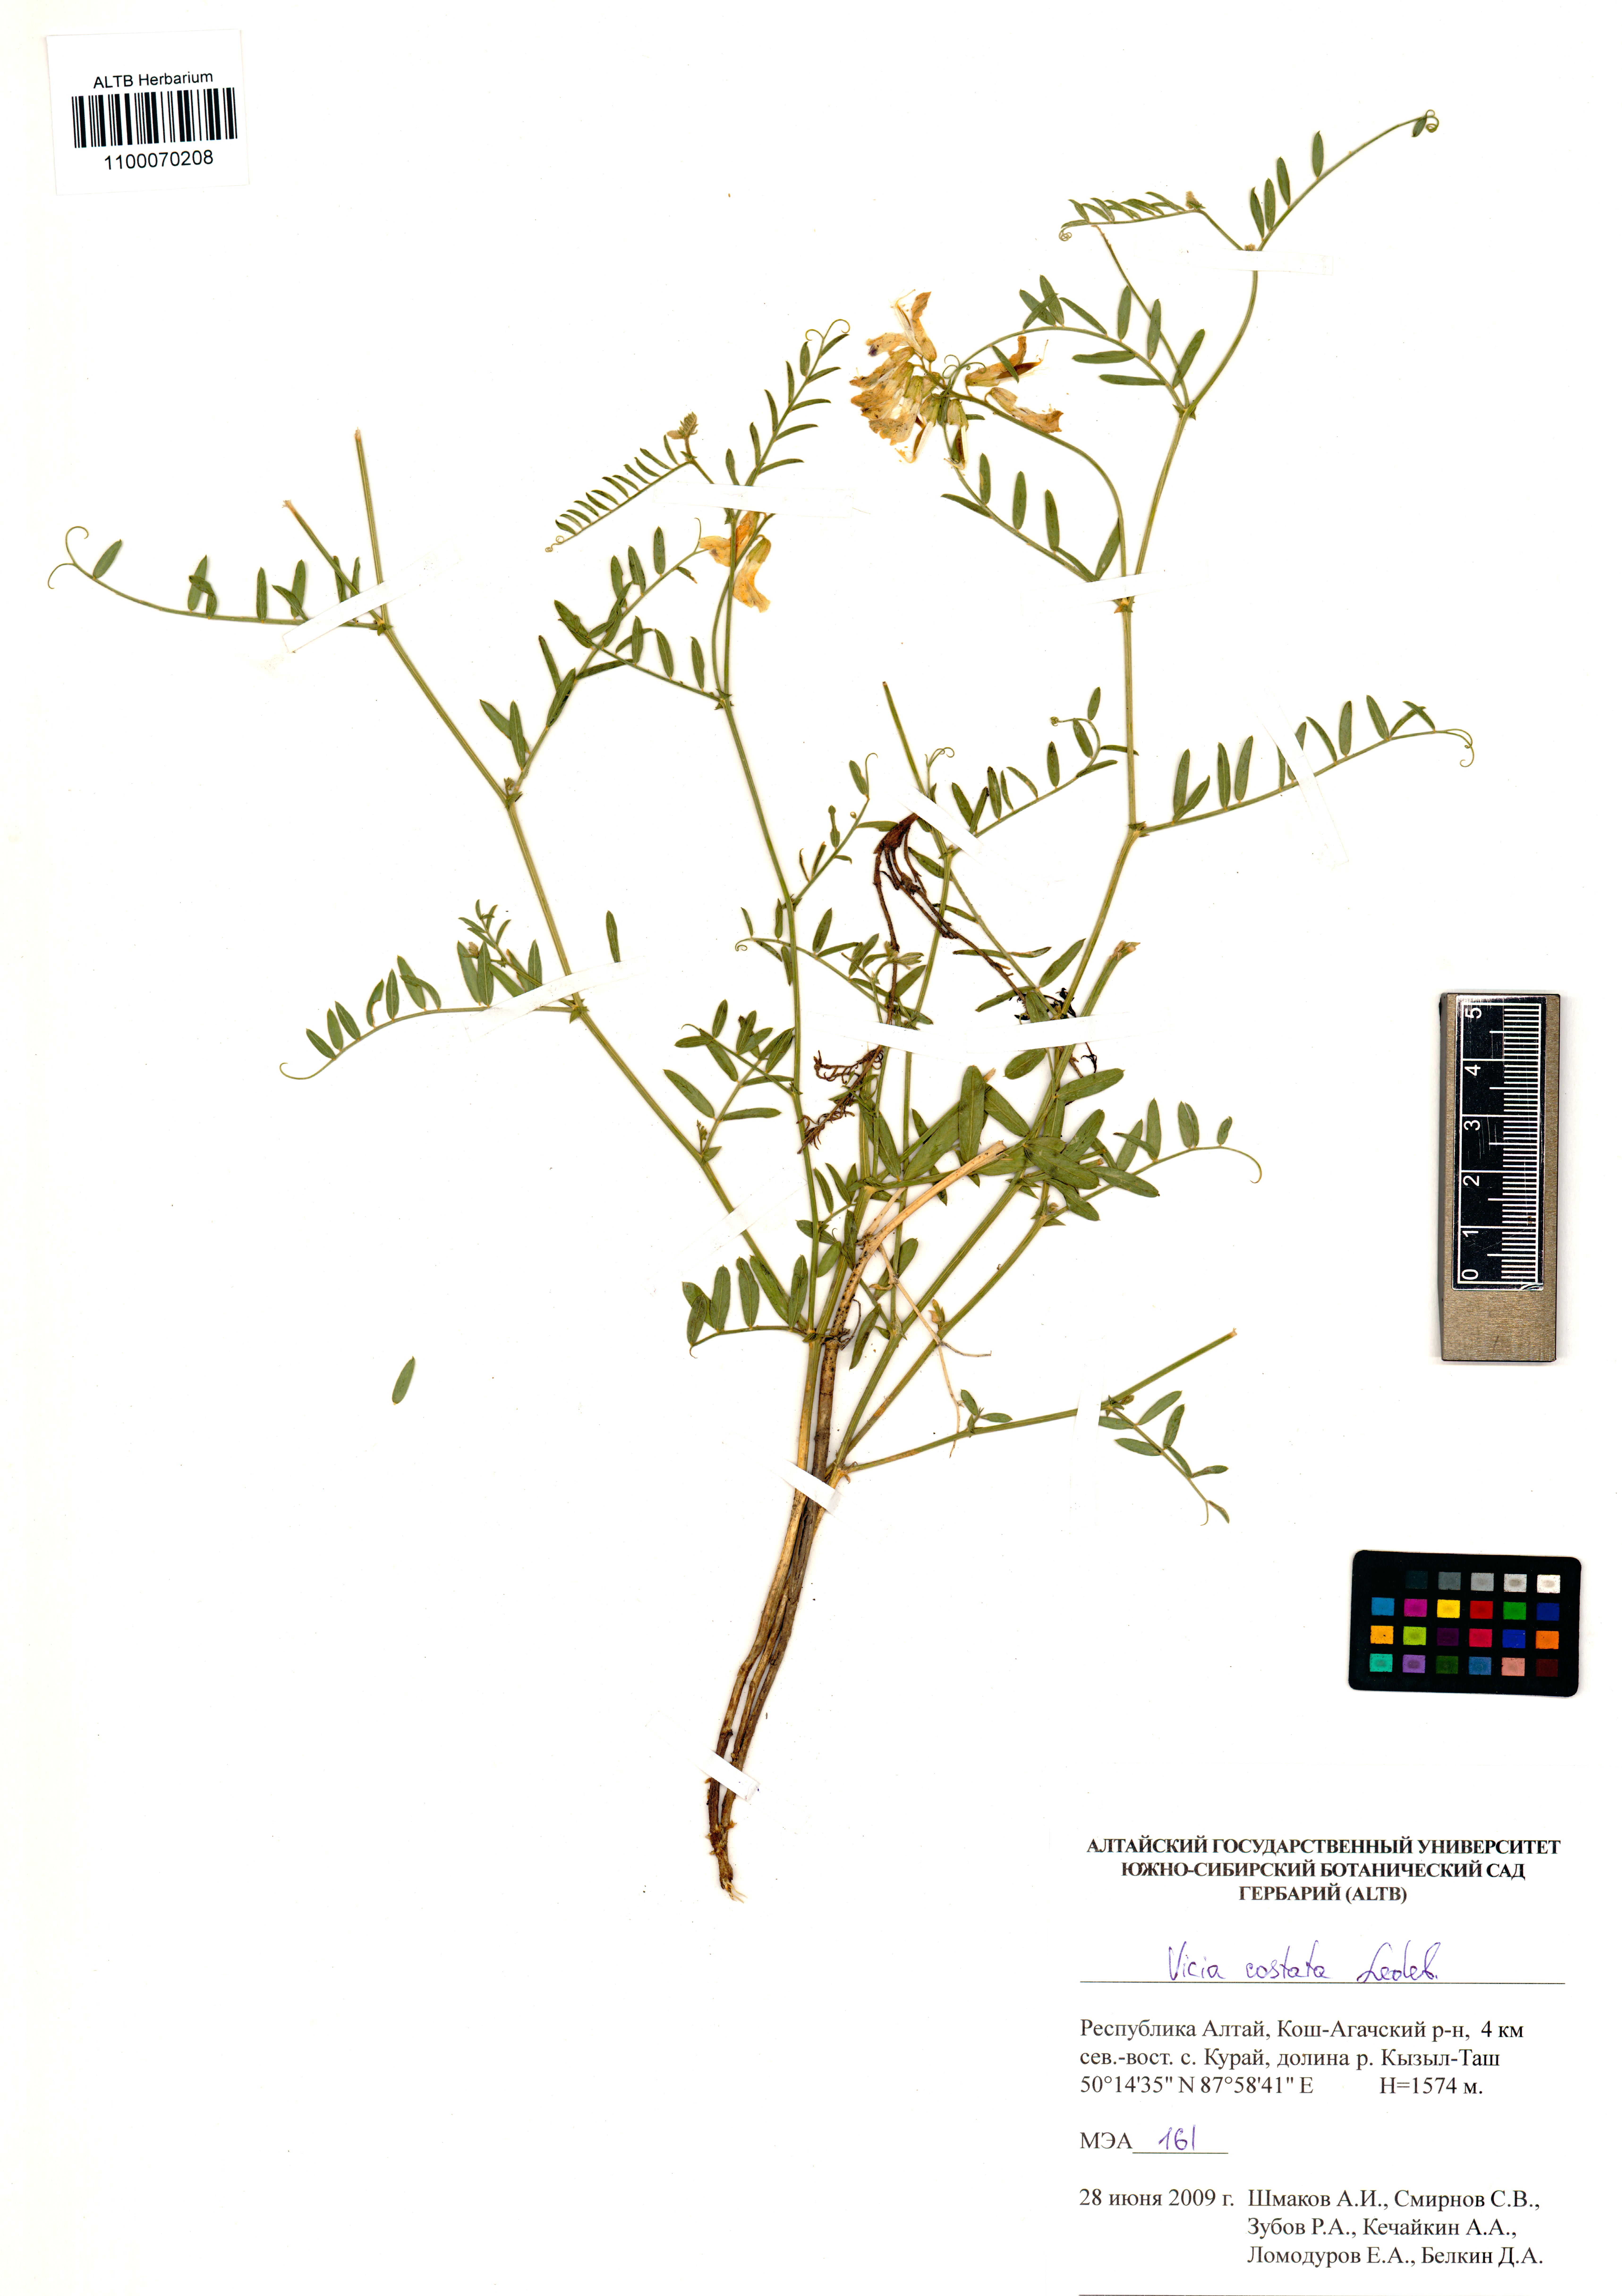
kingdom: Plantae
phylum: Tracheophyta
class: Magnoliopsida
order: Fabales
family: Fabaceae
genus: Vicia
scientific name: Vicia costata
